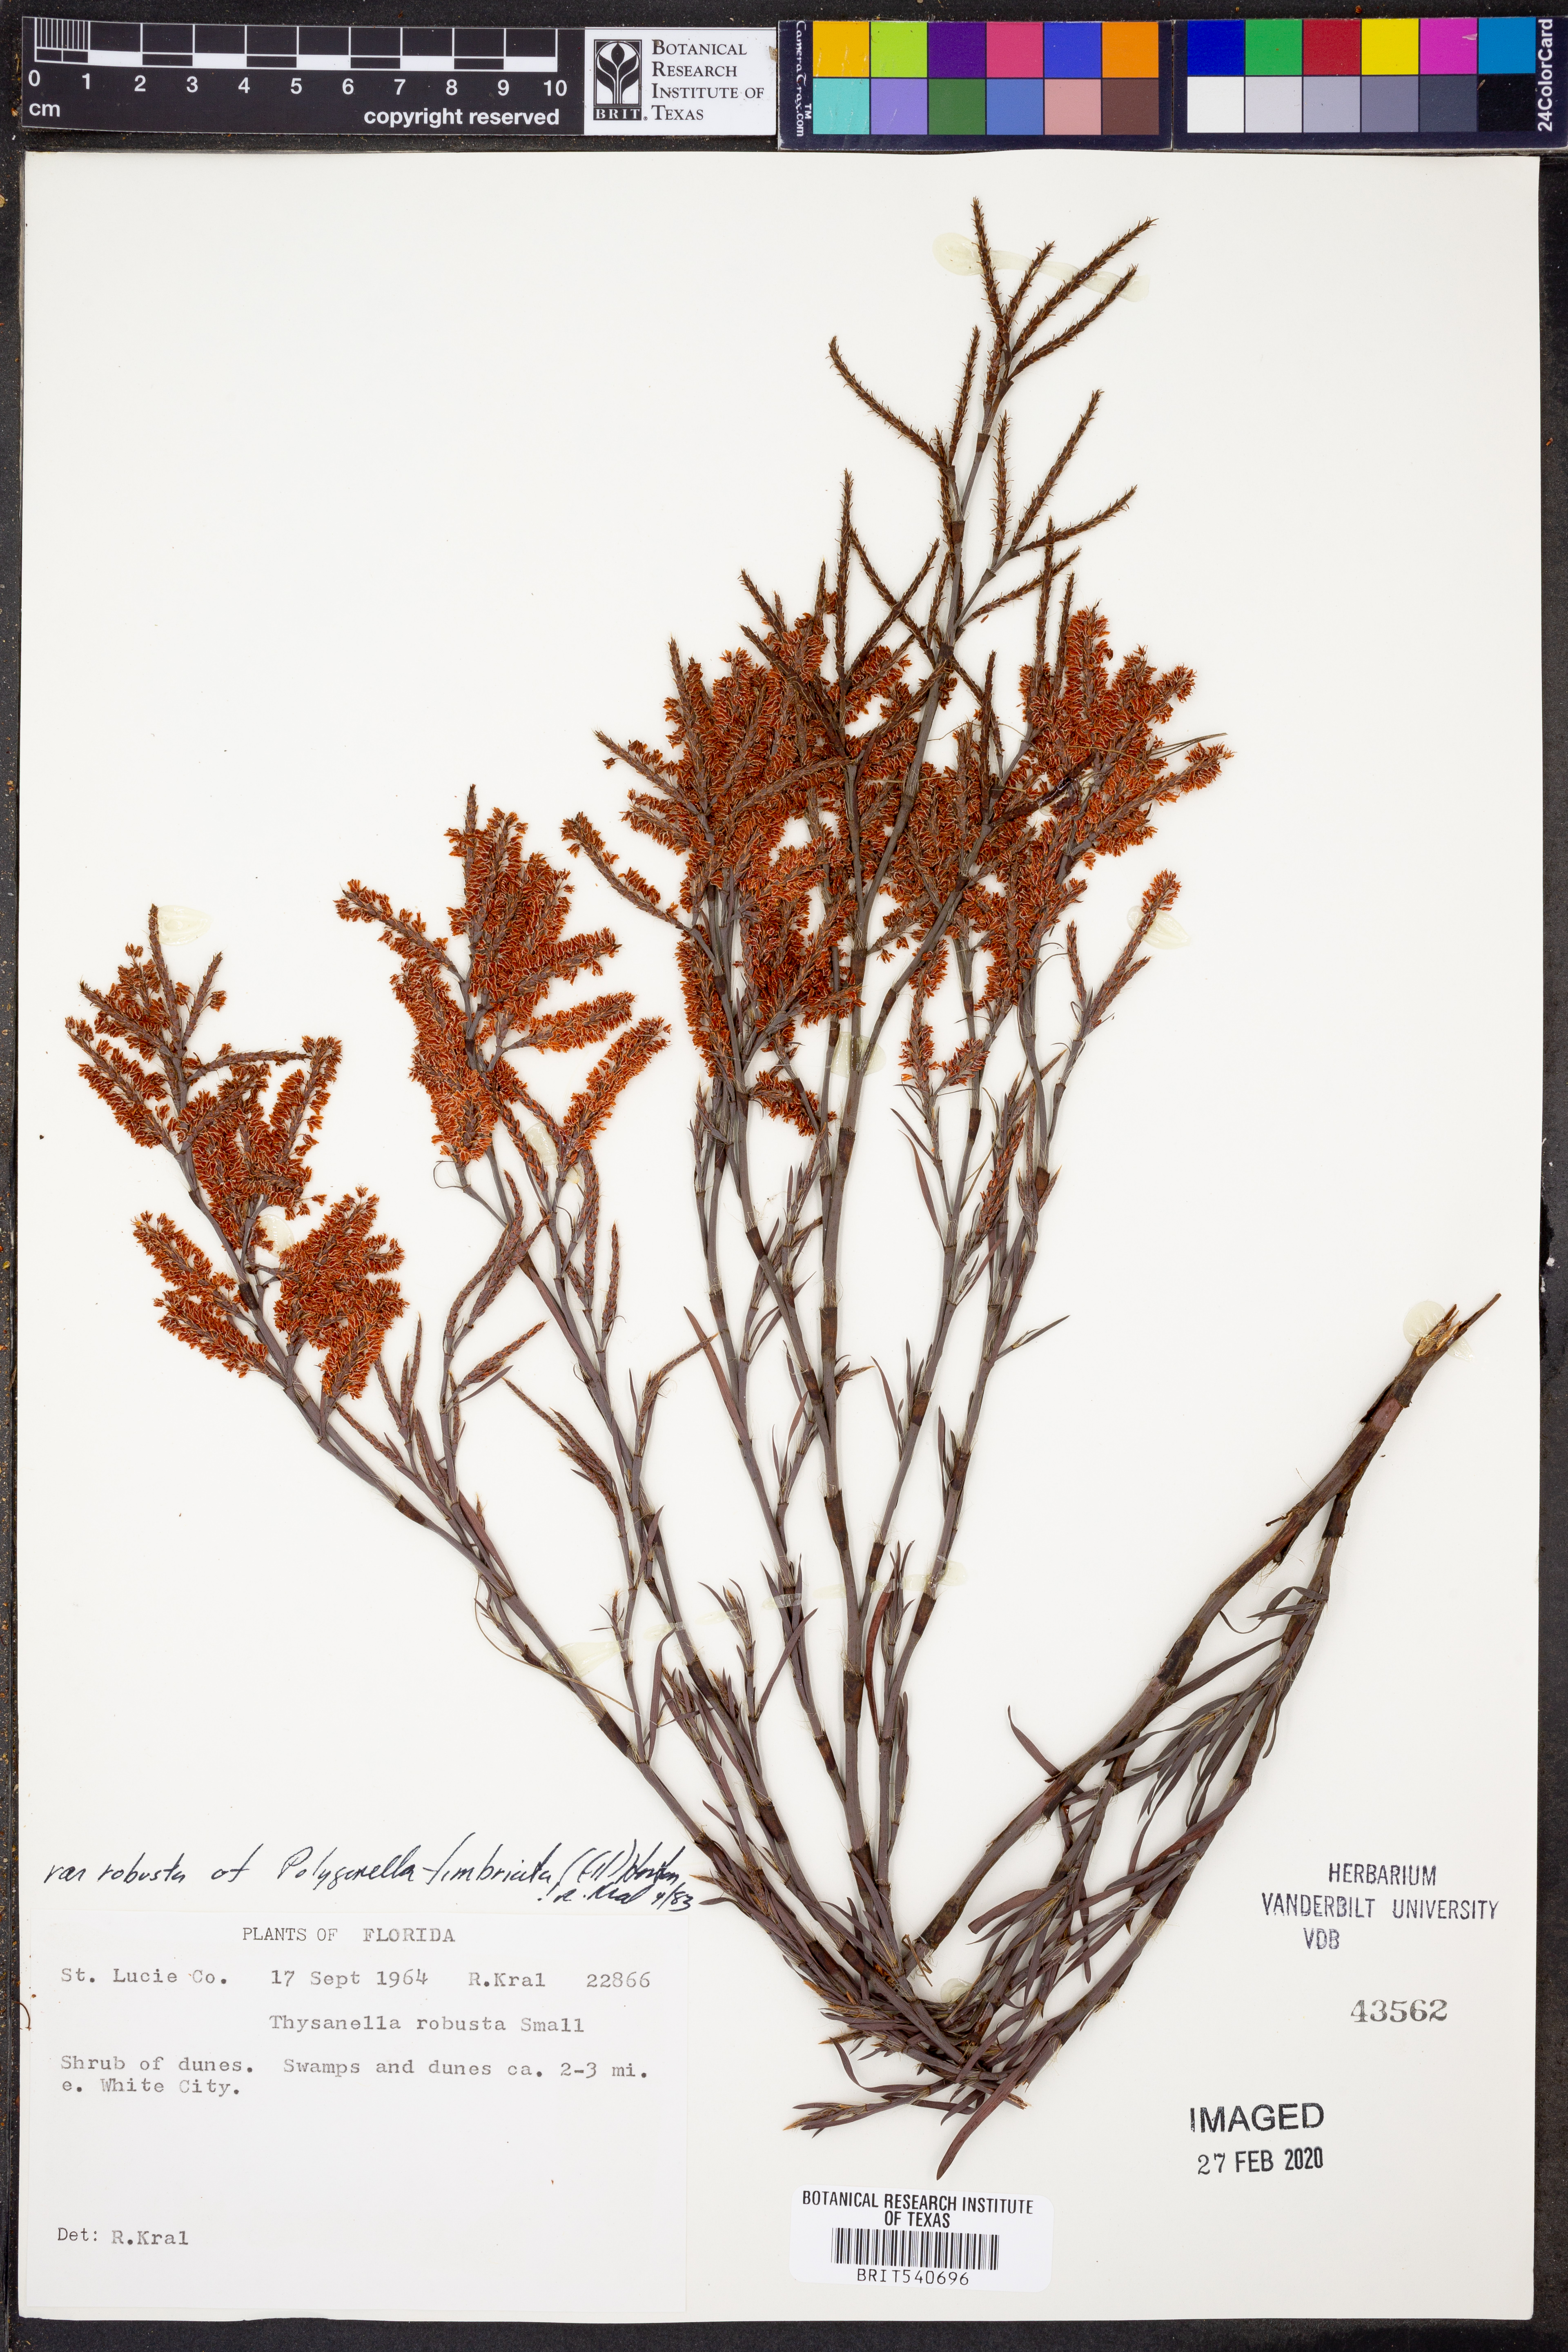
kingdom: Plantae
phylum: Tracheophyta
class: Magnoliopsida
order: Caryophyllales
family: Polygonaceae
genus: Polygonella
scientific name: Polygonella robusta
